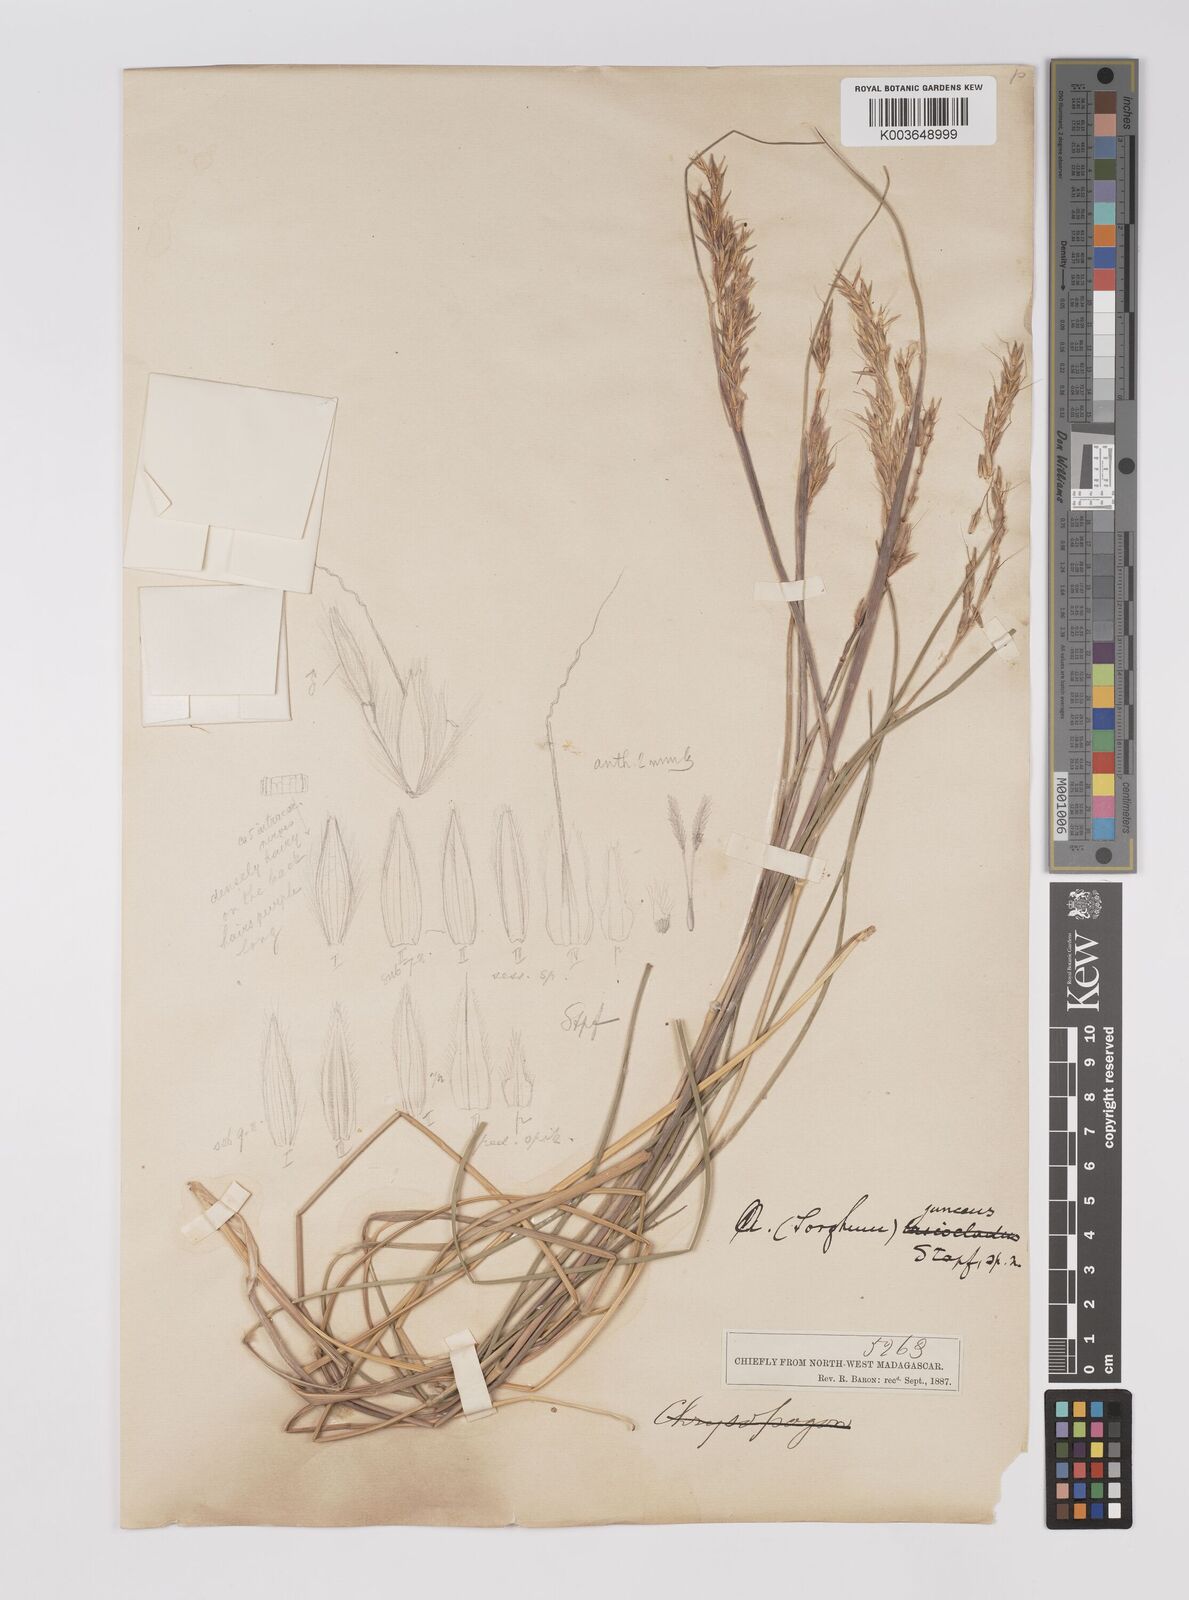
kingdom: Plantae
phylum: Tracheophyta
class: Liliopsida
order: Poales
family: Poaceae
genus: Sorghum
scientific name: Sorghum
